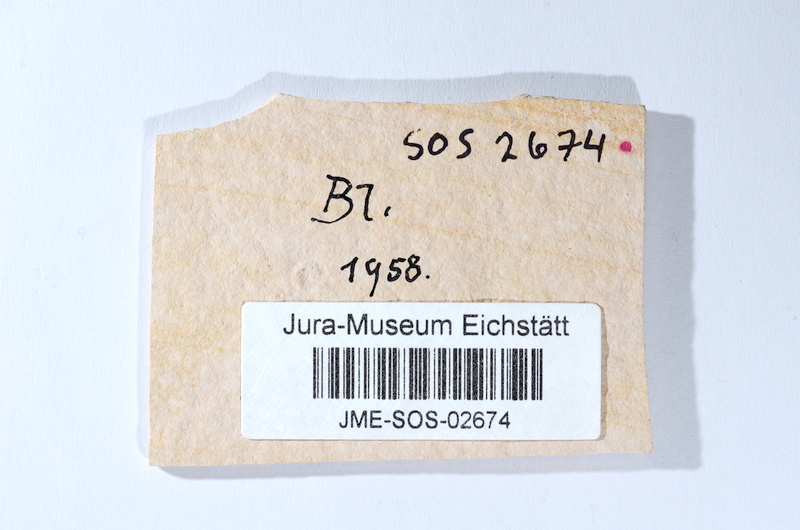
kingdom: Animalia
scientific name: Animalia
